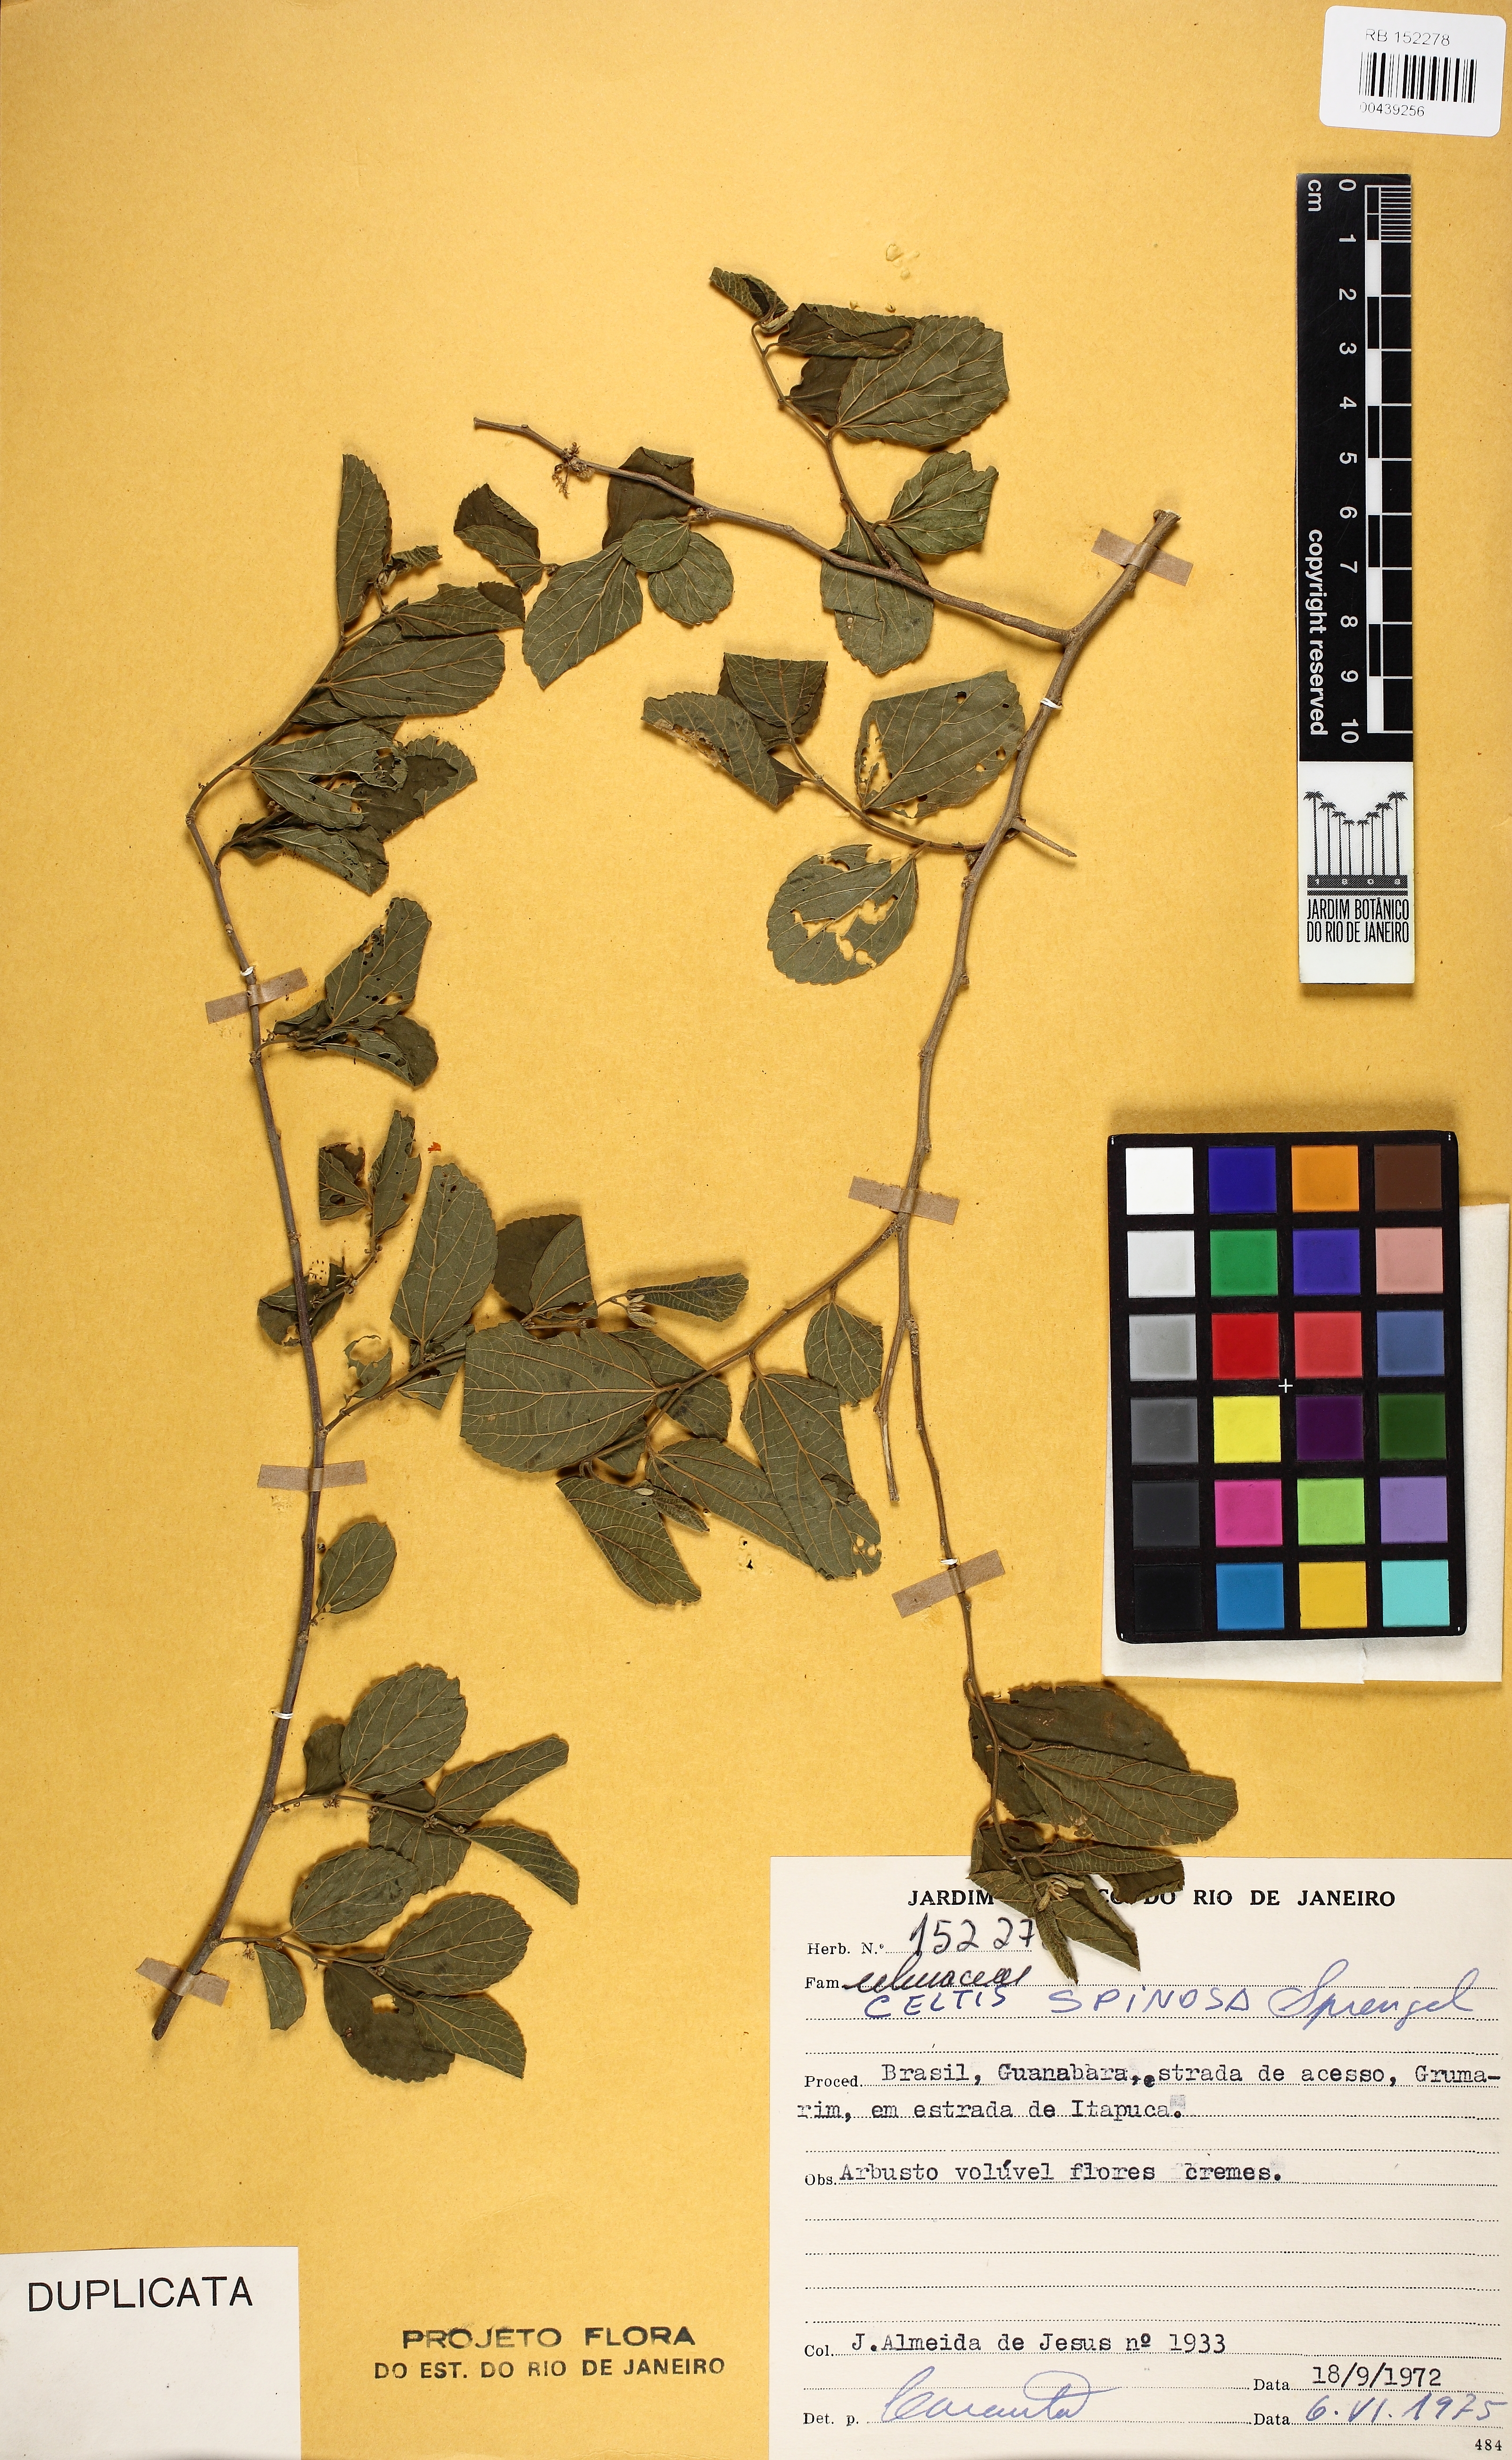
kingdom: Plantae
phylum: Tracheophyta
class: Magnoliopsida
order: Rosales
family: Cannabaceae
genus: Celtis
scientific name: Celtis spinosa
